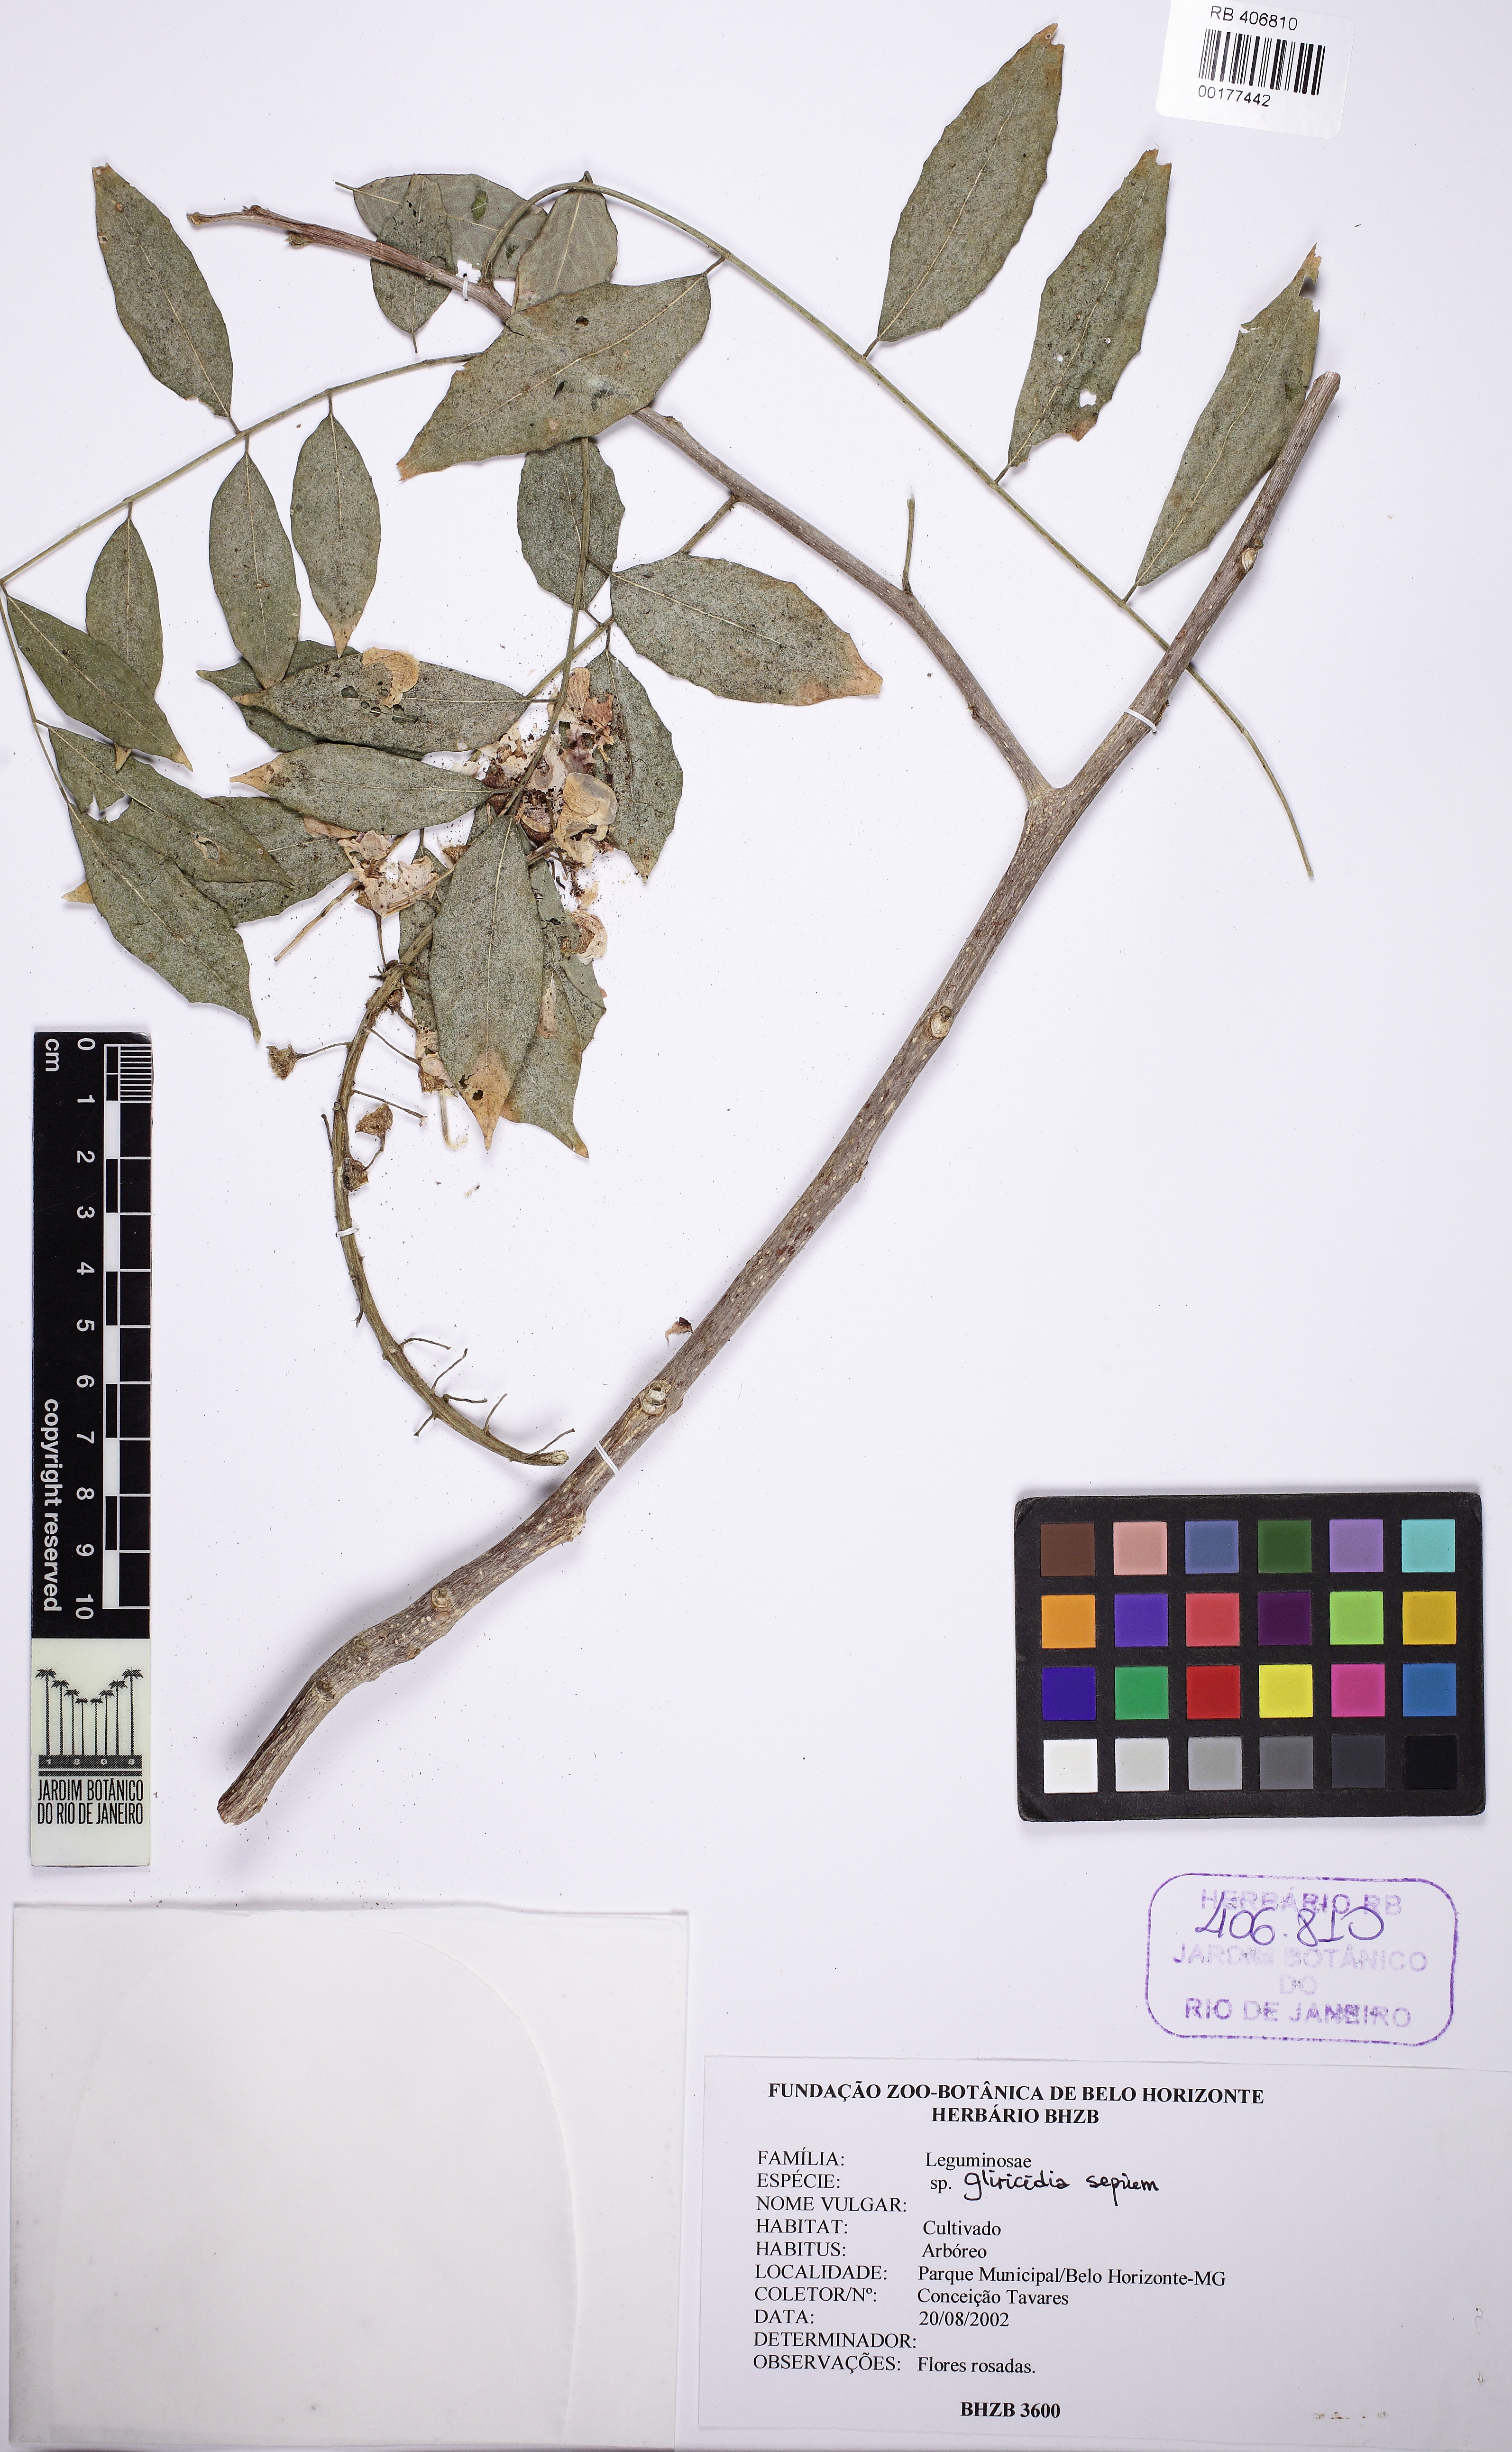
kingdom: Plantae
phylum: Tracheophyta
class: Magnoliopsida
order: Fabales
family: Fabaceae
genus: Gliricidia
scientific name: Gliricidia sepium
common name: Quickstick
